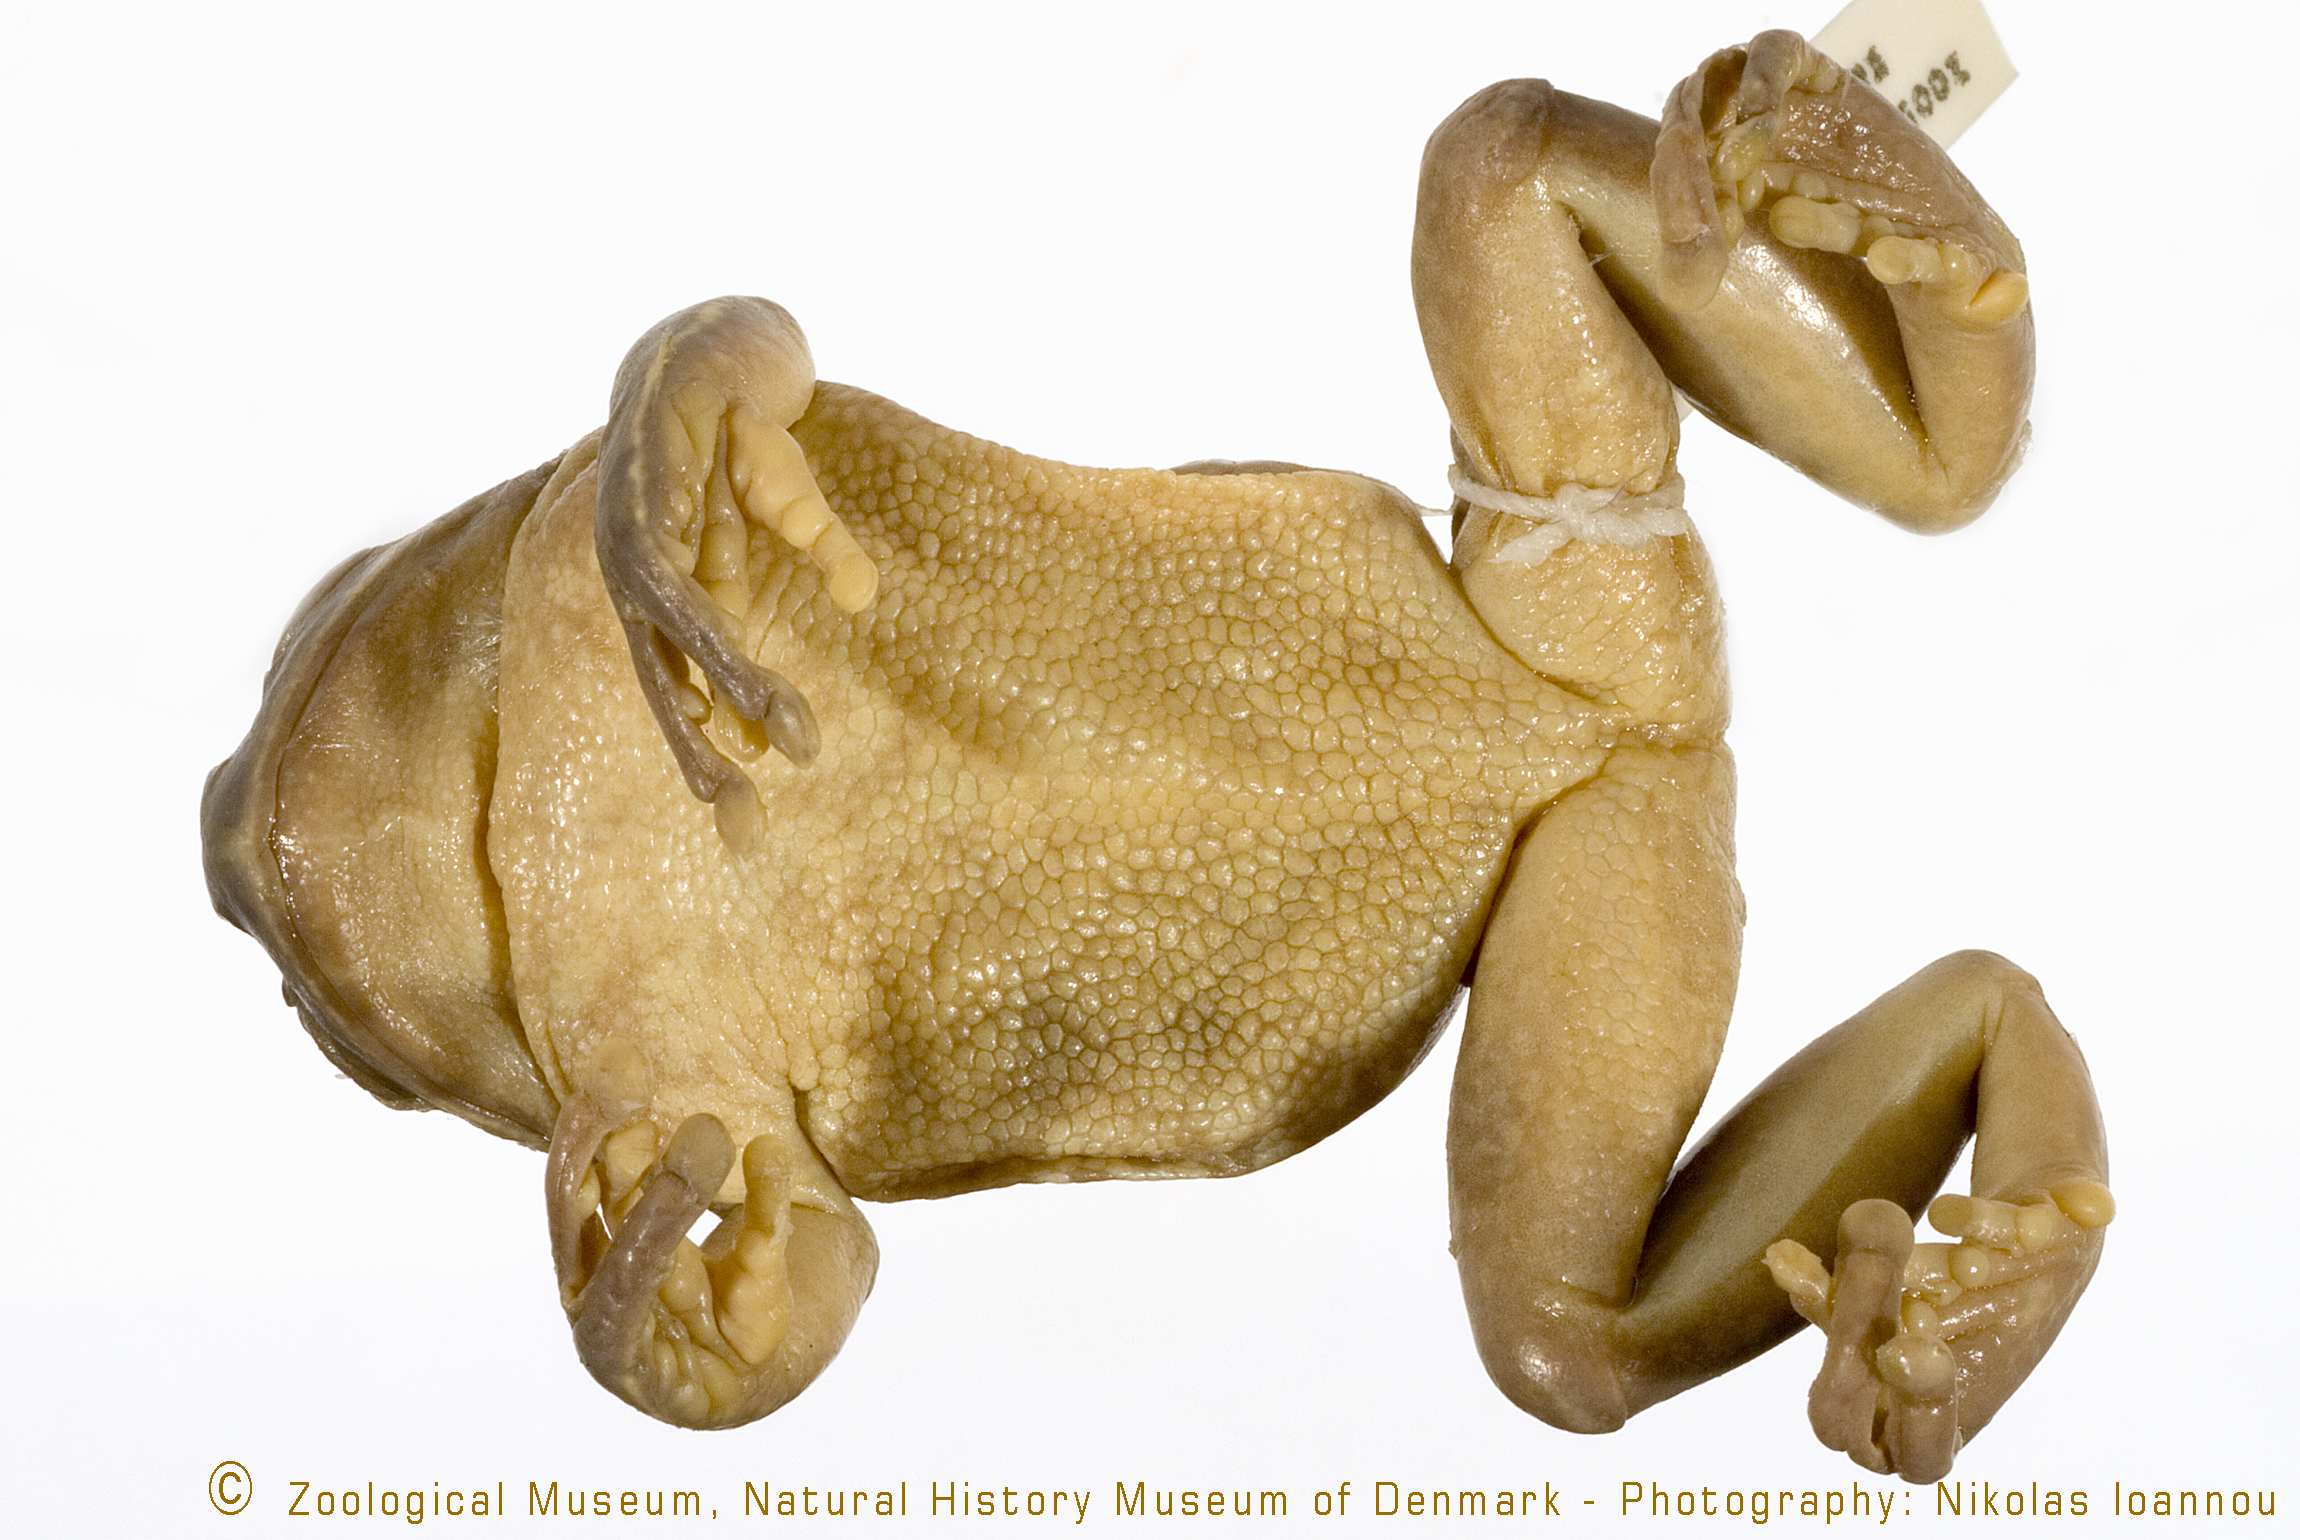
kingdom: Animalia
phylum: Chordata
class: Amphibia
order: Anura
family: Arthroleptidae
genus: Leptopelis
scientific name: Leptopelis christyi
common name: Christy's tree frog
